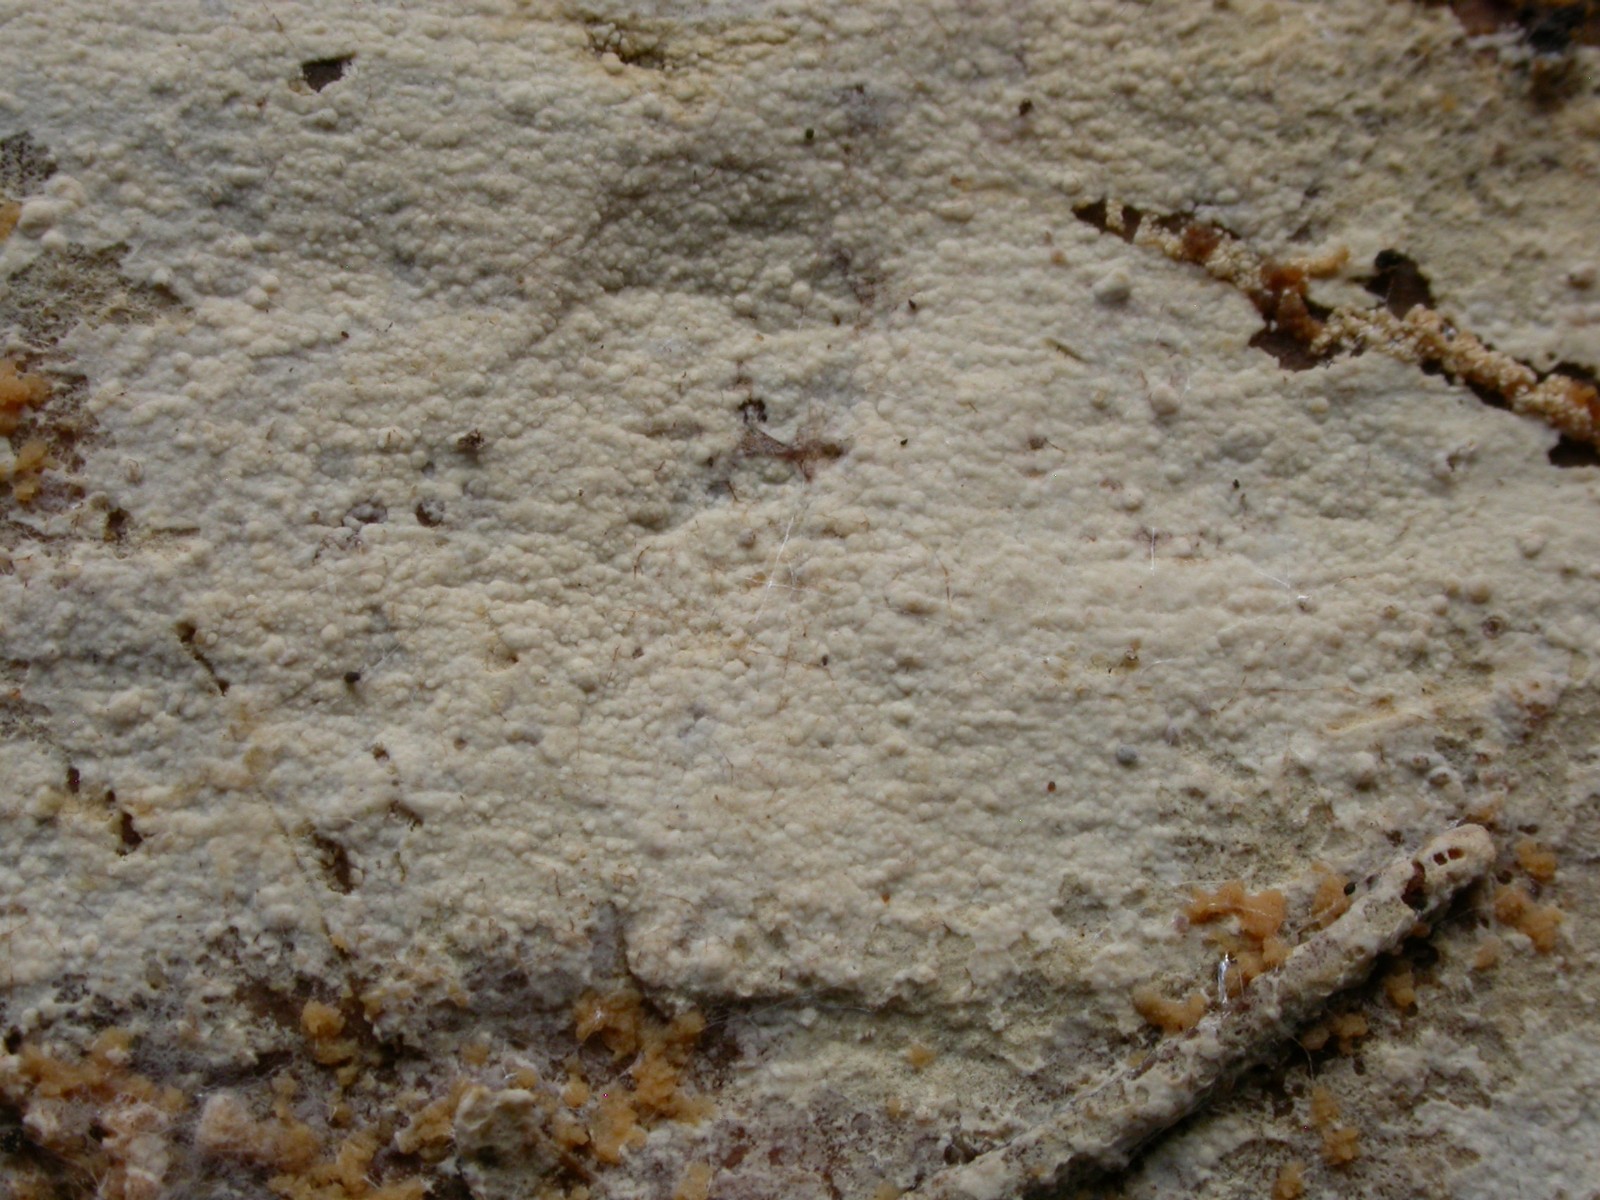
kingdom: Fungi
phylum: Basidiomycota
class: Agaricomycetes
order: Hymenochaetales
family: Hyphodontiaceae
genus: Hyphodontia
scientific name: Hyphodontia alutaria
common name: flaskerenser-nålehinde
